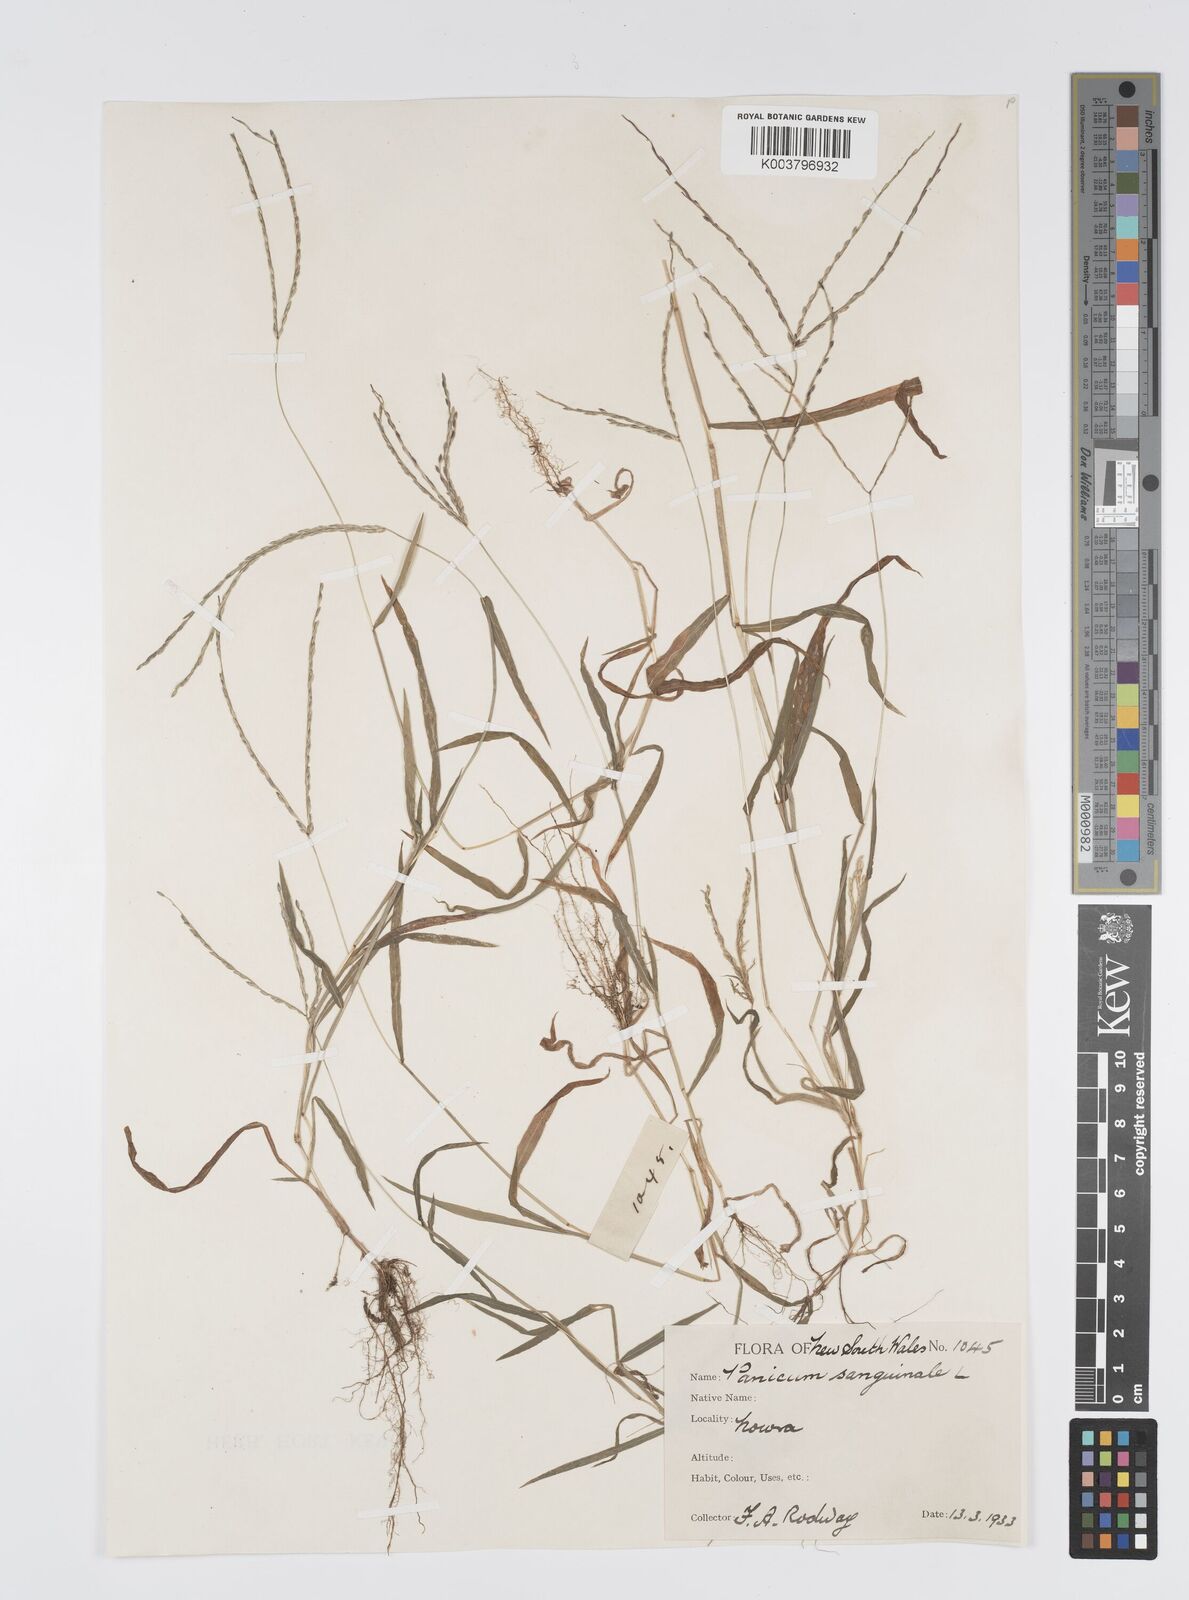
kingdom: Plantae
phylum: Tracheophyta
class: Liliopsida
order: Poales
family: Poaceae
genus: Digitaria
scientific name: Digitaria sanguinalis
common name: Hairy crabgrass
